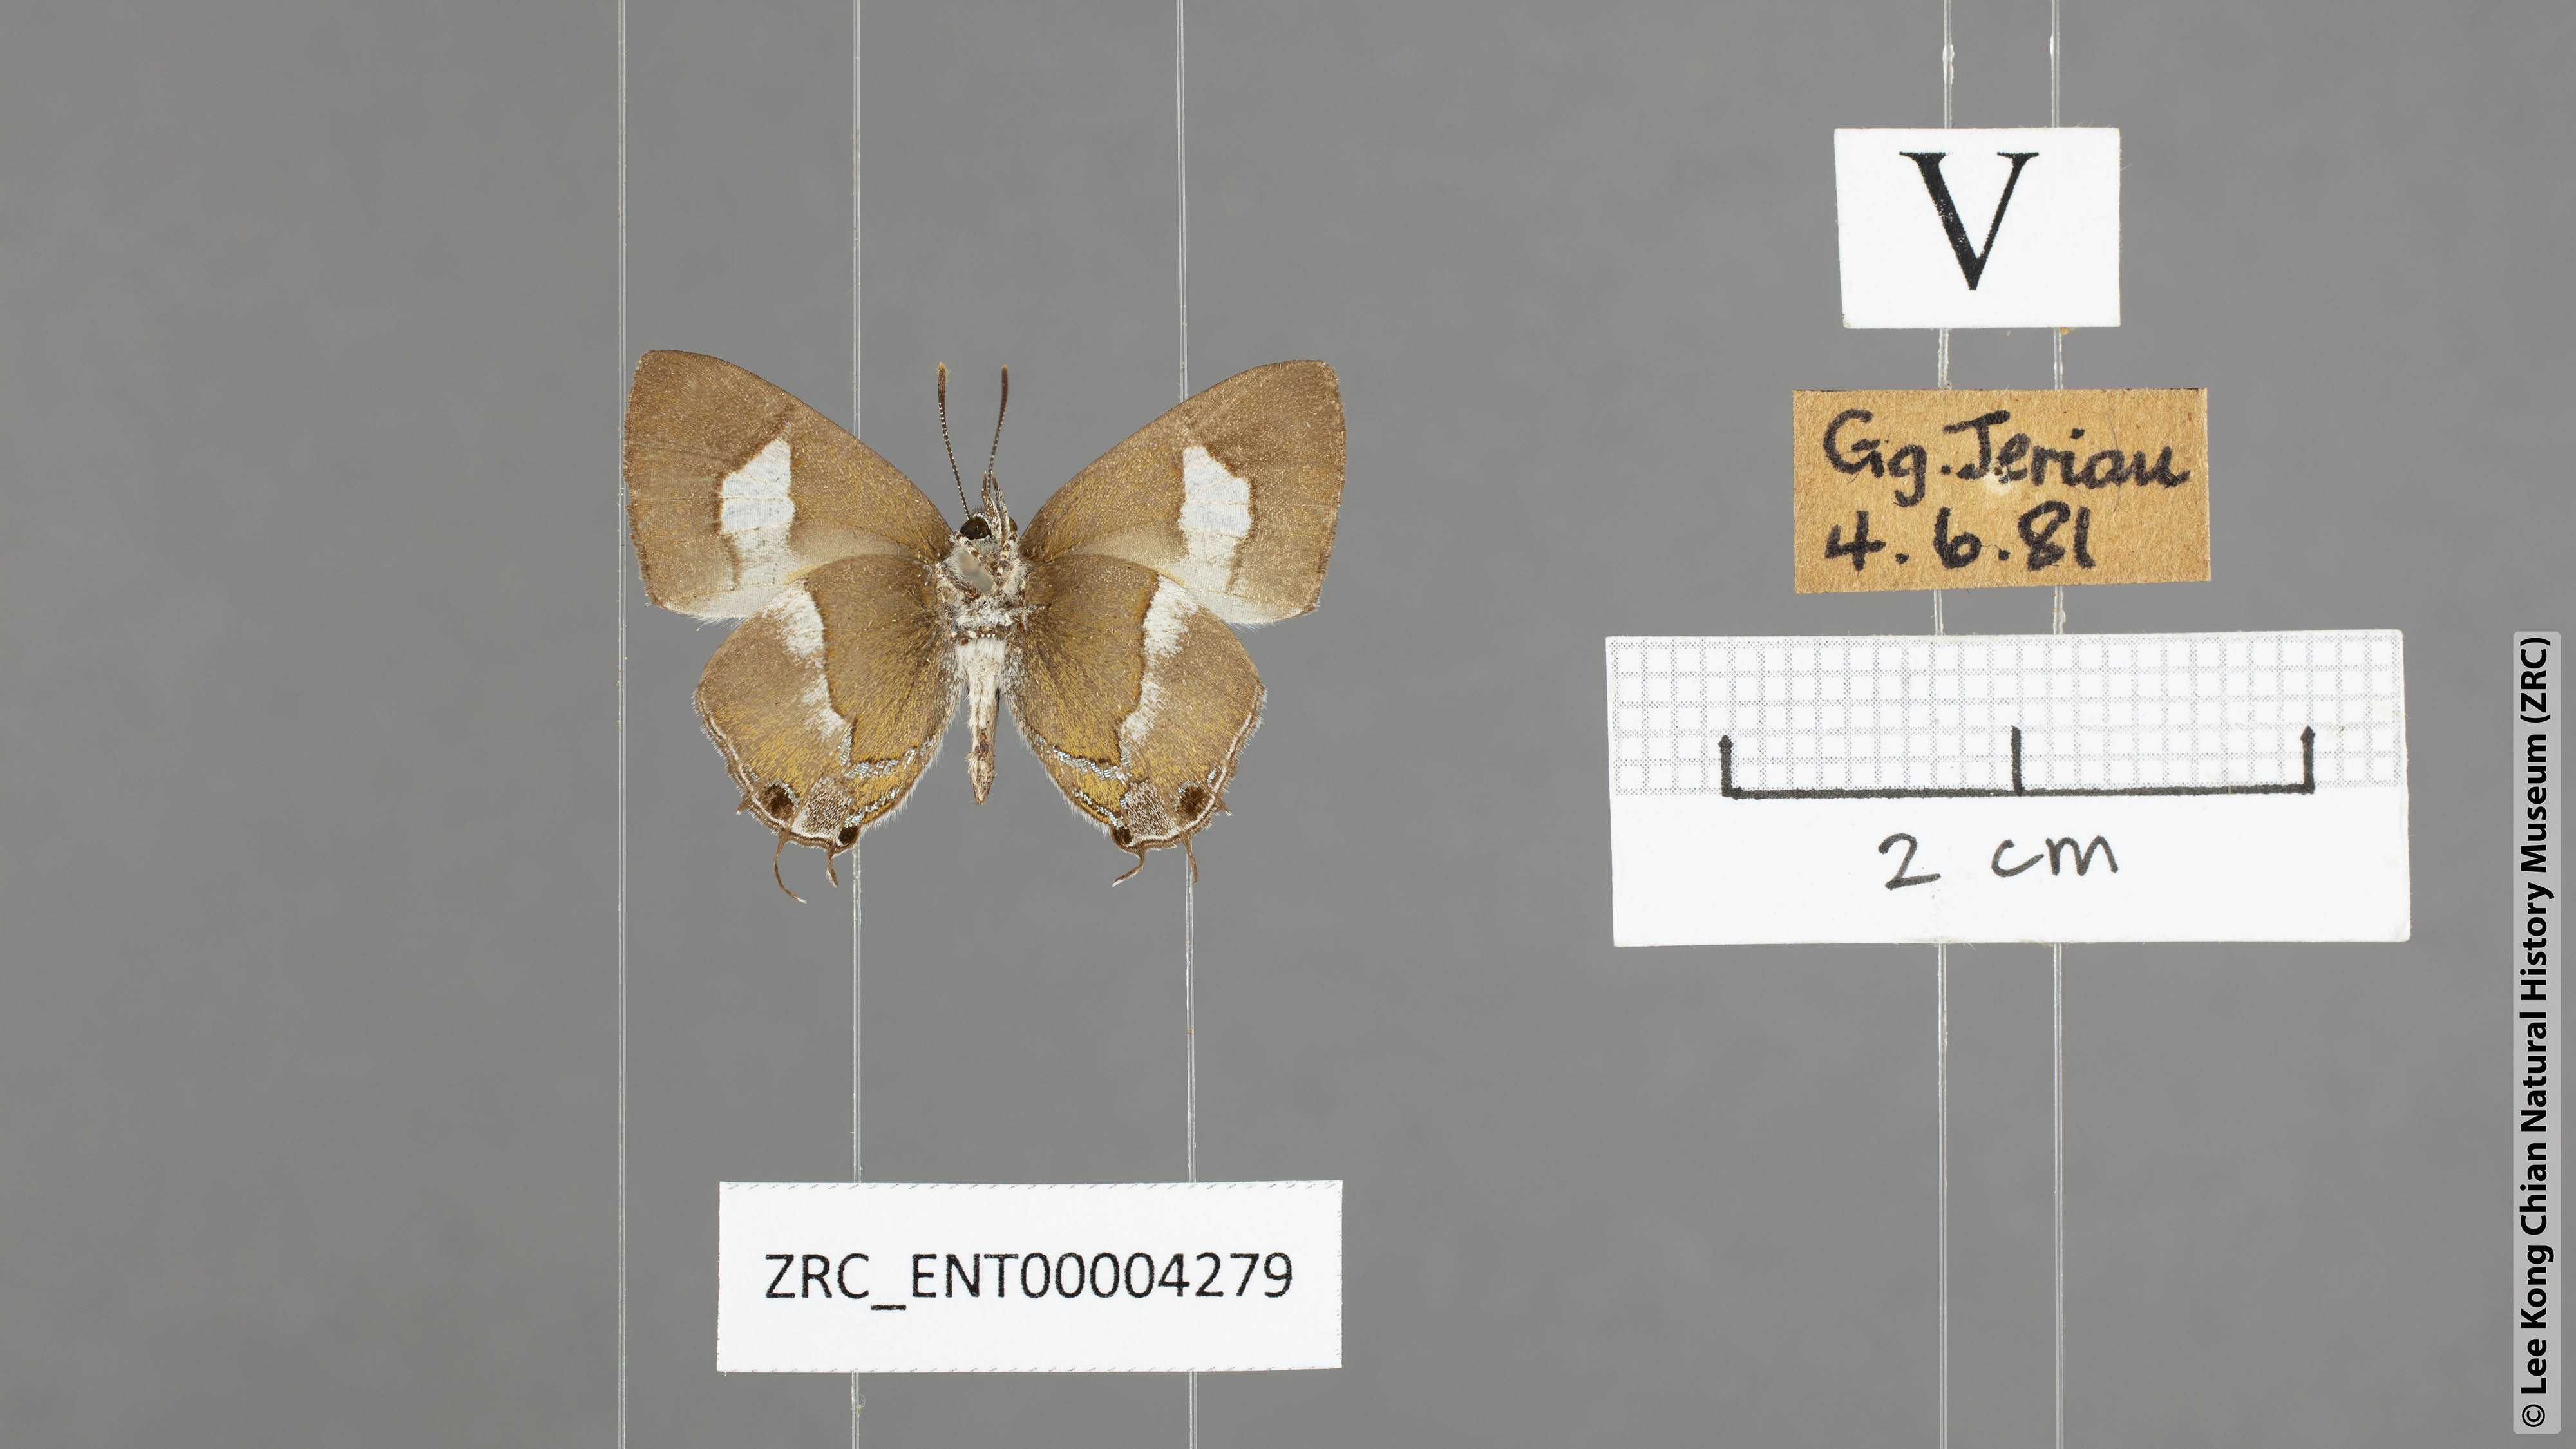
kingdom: Animalia
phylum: Arthropoda
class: Insecta
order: Lepidoptera
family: Lycaenidae
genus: Horaga
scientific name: Horaga onyx
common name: Common onyx
